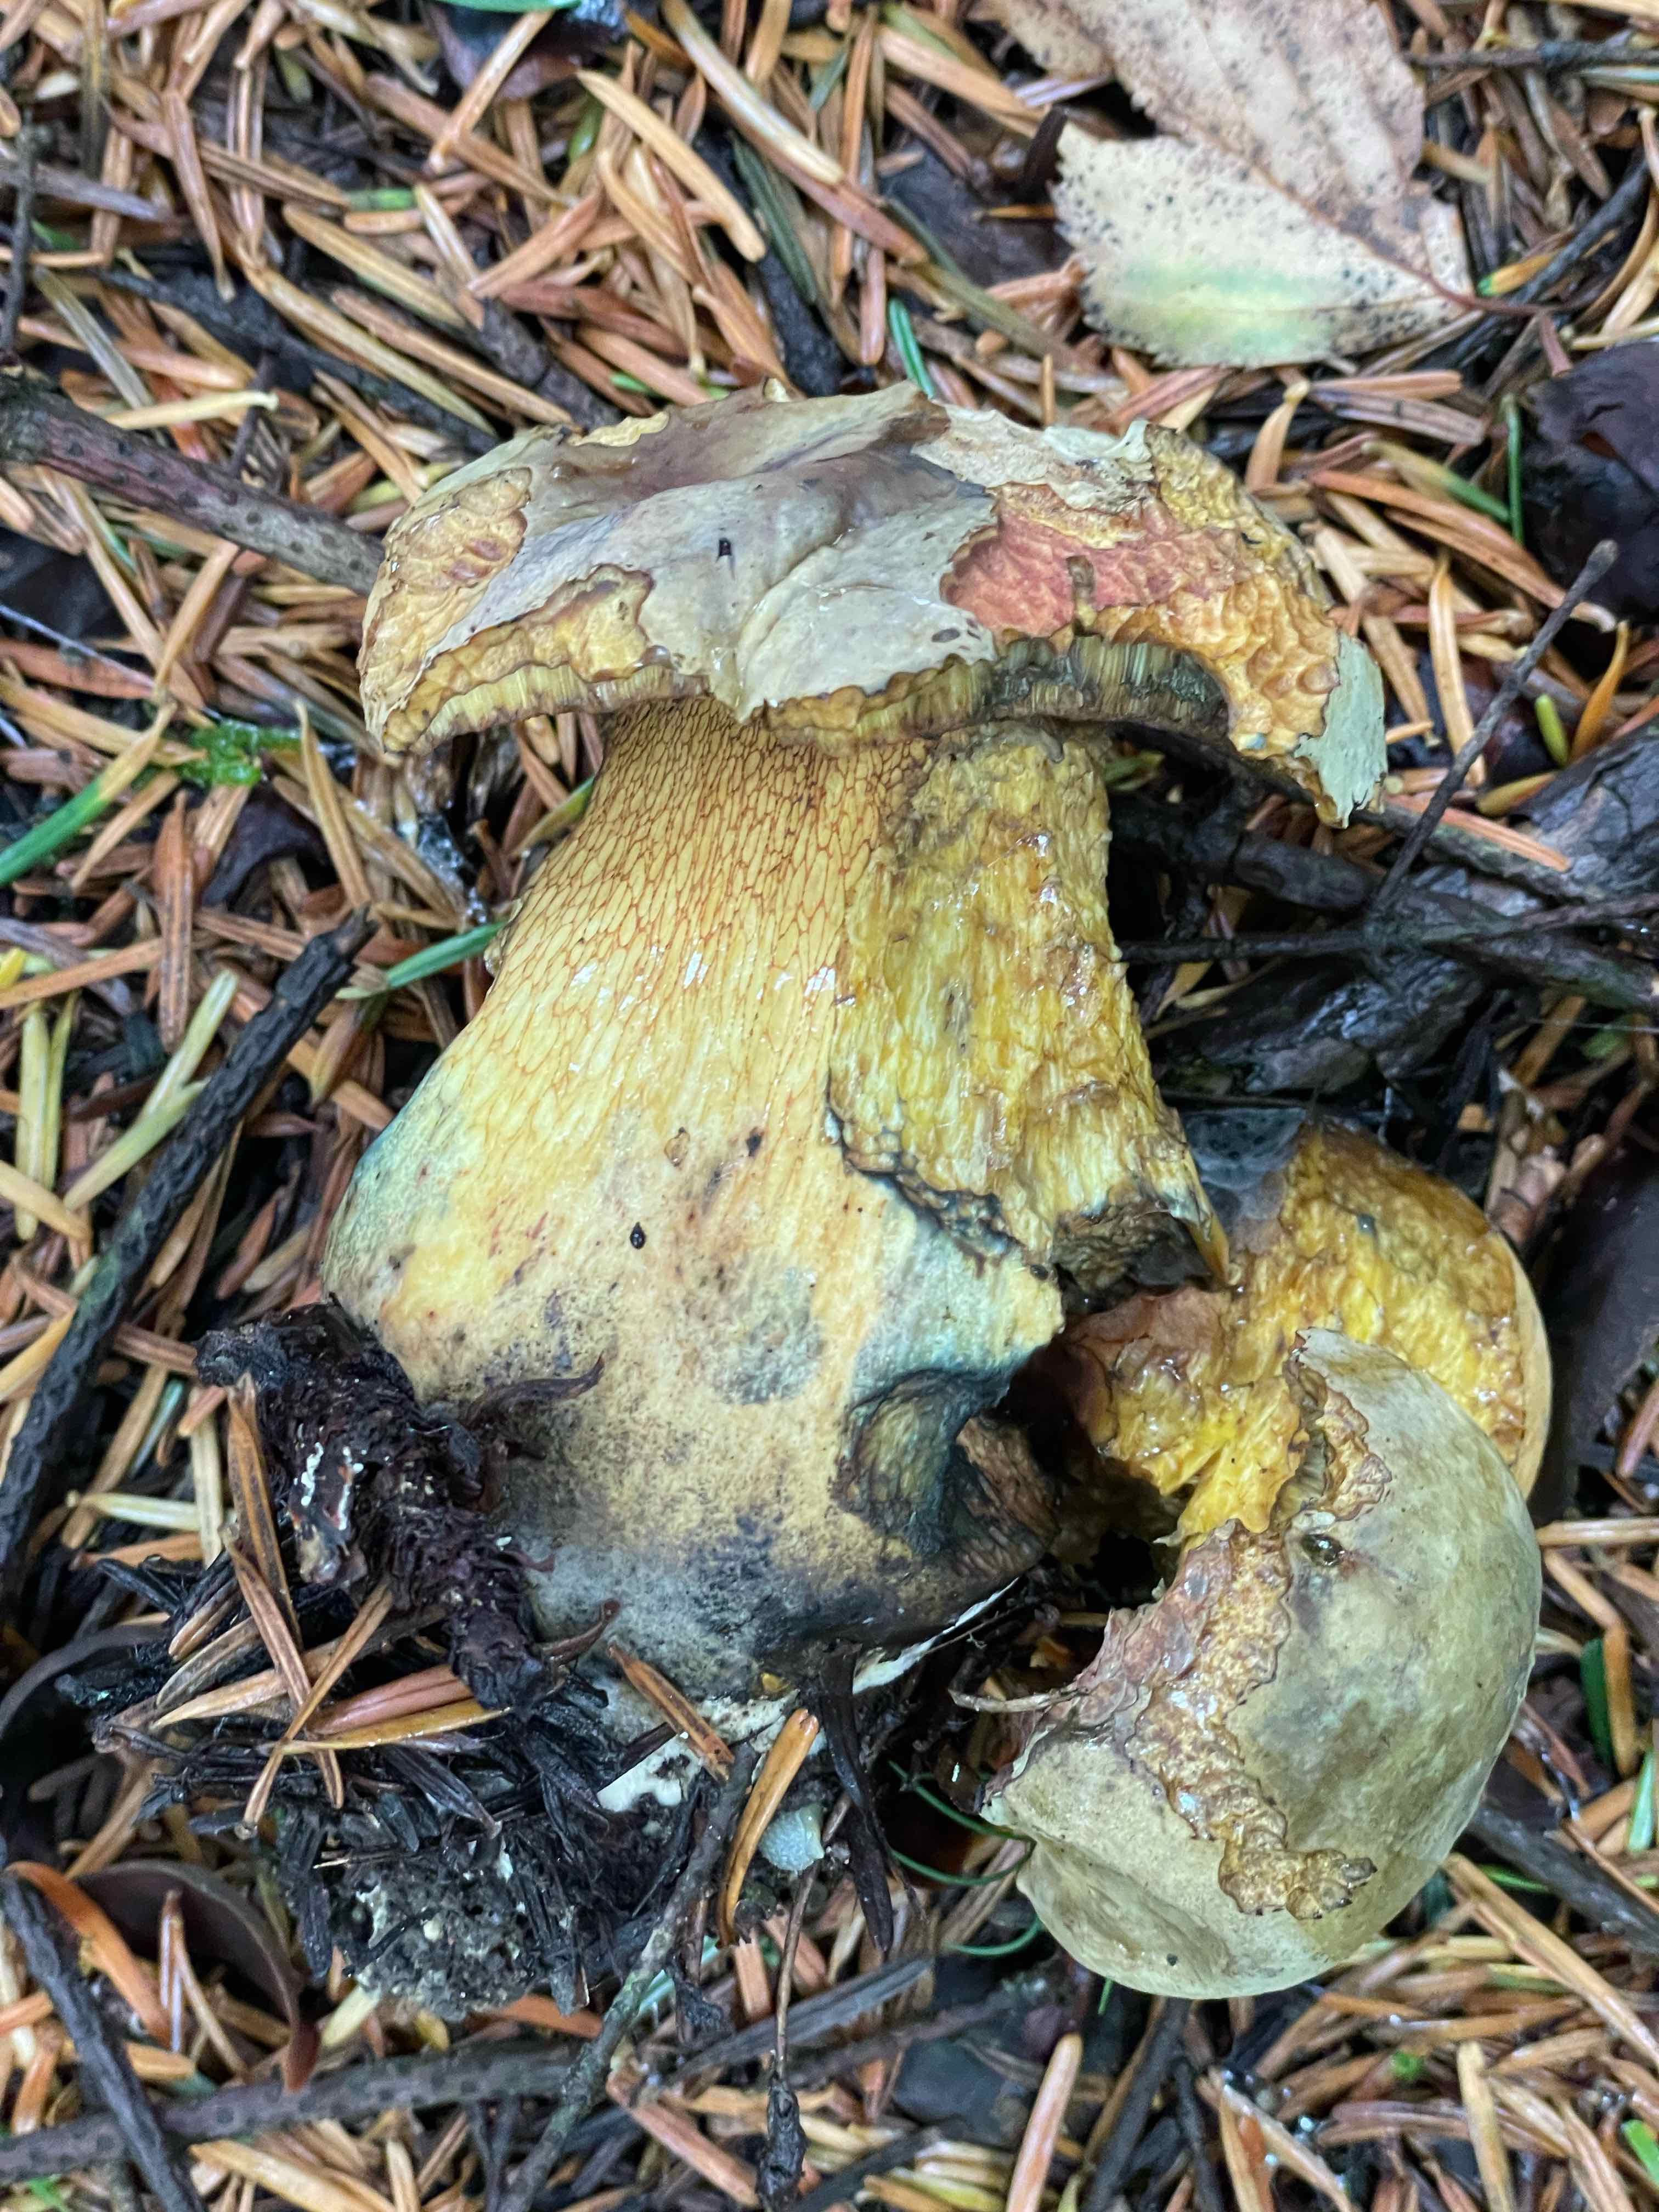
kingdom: Fungi
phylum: Basidiomycota
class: Agaricomycetes
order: Boletales
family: Boletaceae
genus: Suillellus
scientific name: Suillellus luridus
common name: netstokket indigorørhat
